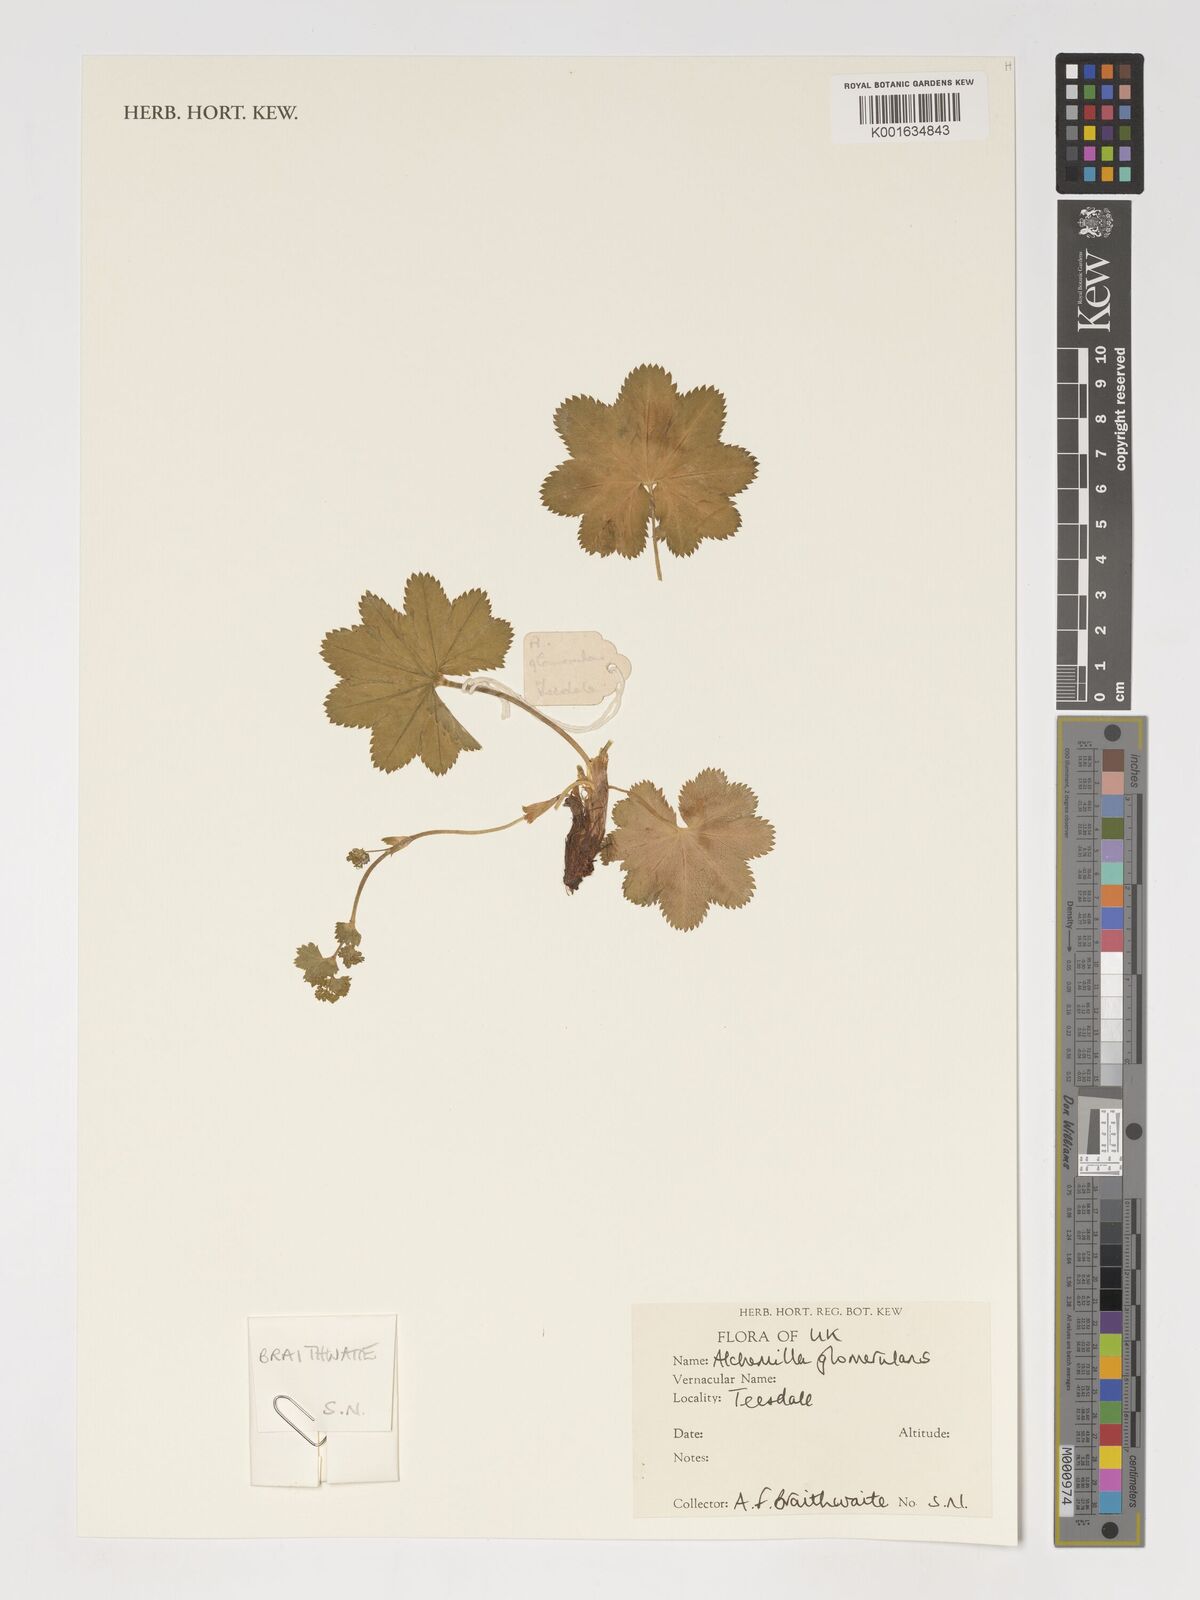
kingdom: Plantae
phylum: Tracheophyta
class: Magnoliopsida
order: Rosales
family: Rosaceae
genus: Alchemilla
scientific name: Alchemilla glomerulans
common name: Clustered lady's mantle
